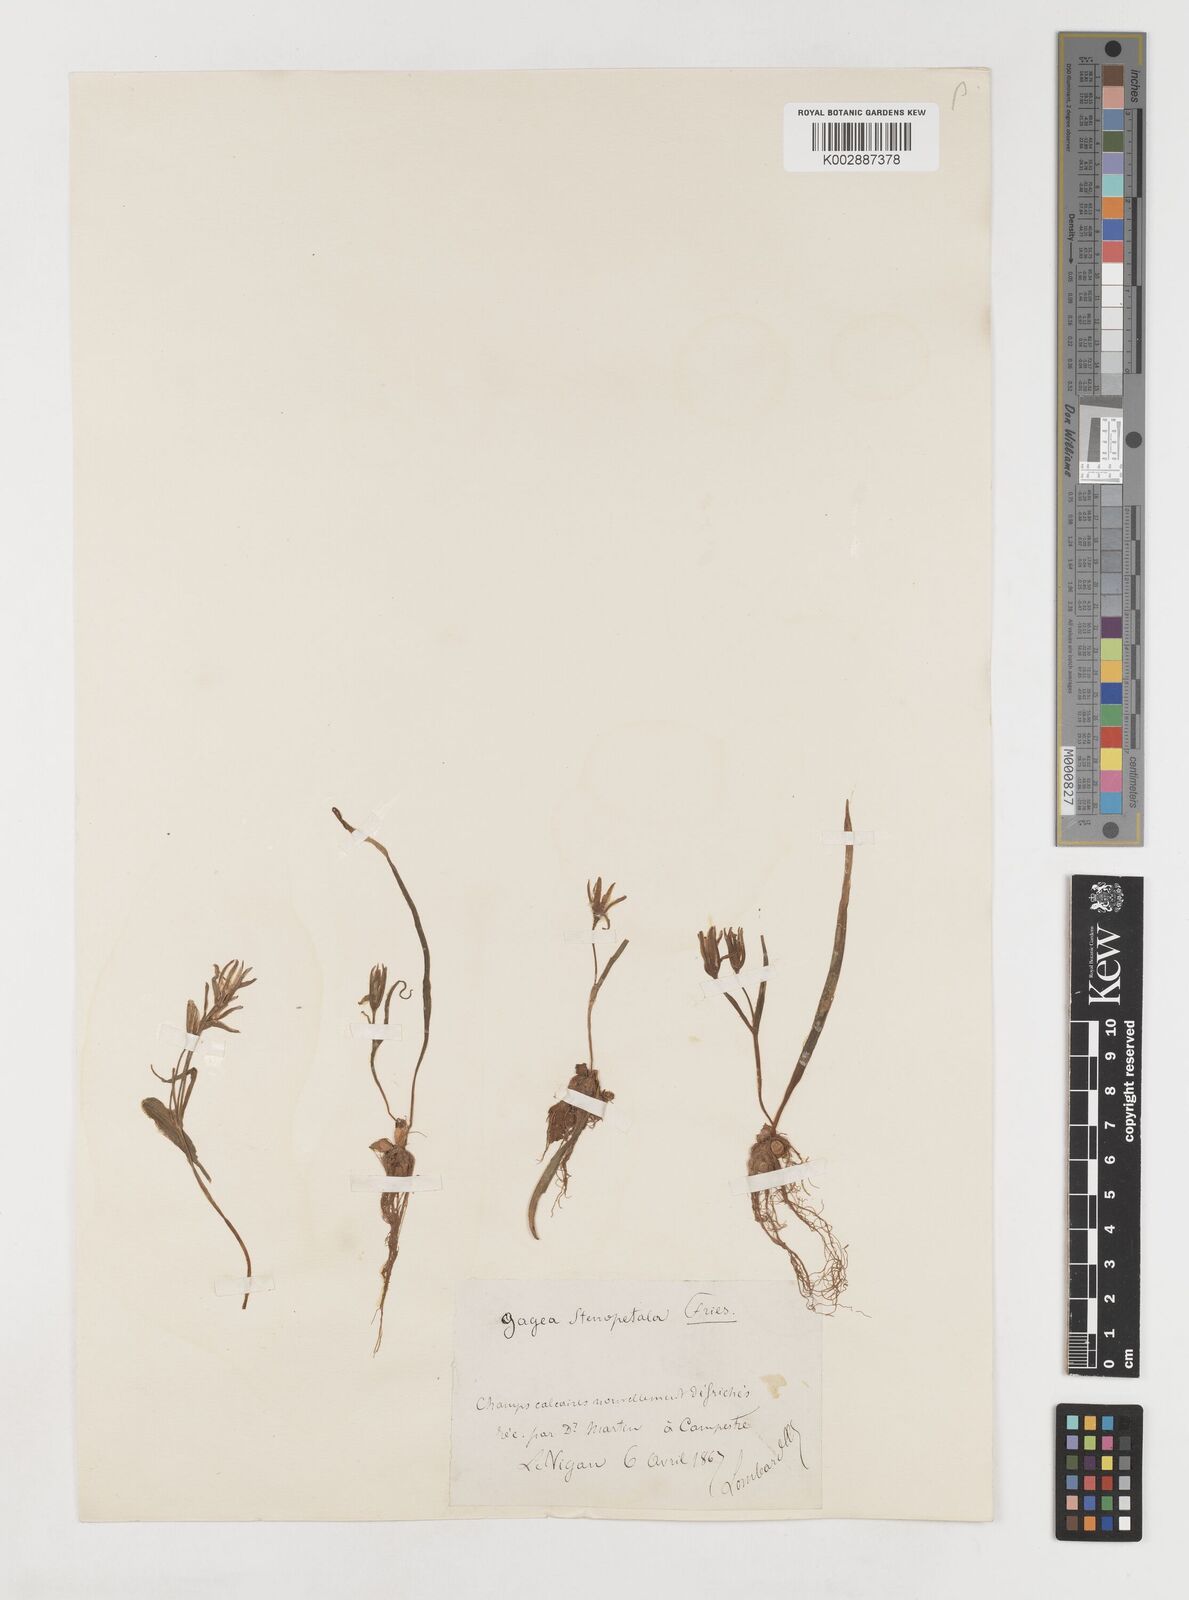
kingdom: Plantae
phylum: Tracheophyta
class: Liliopsida
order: Liliales
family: Liliaceae
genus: Gagea
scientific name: Gagea pratensis
